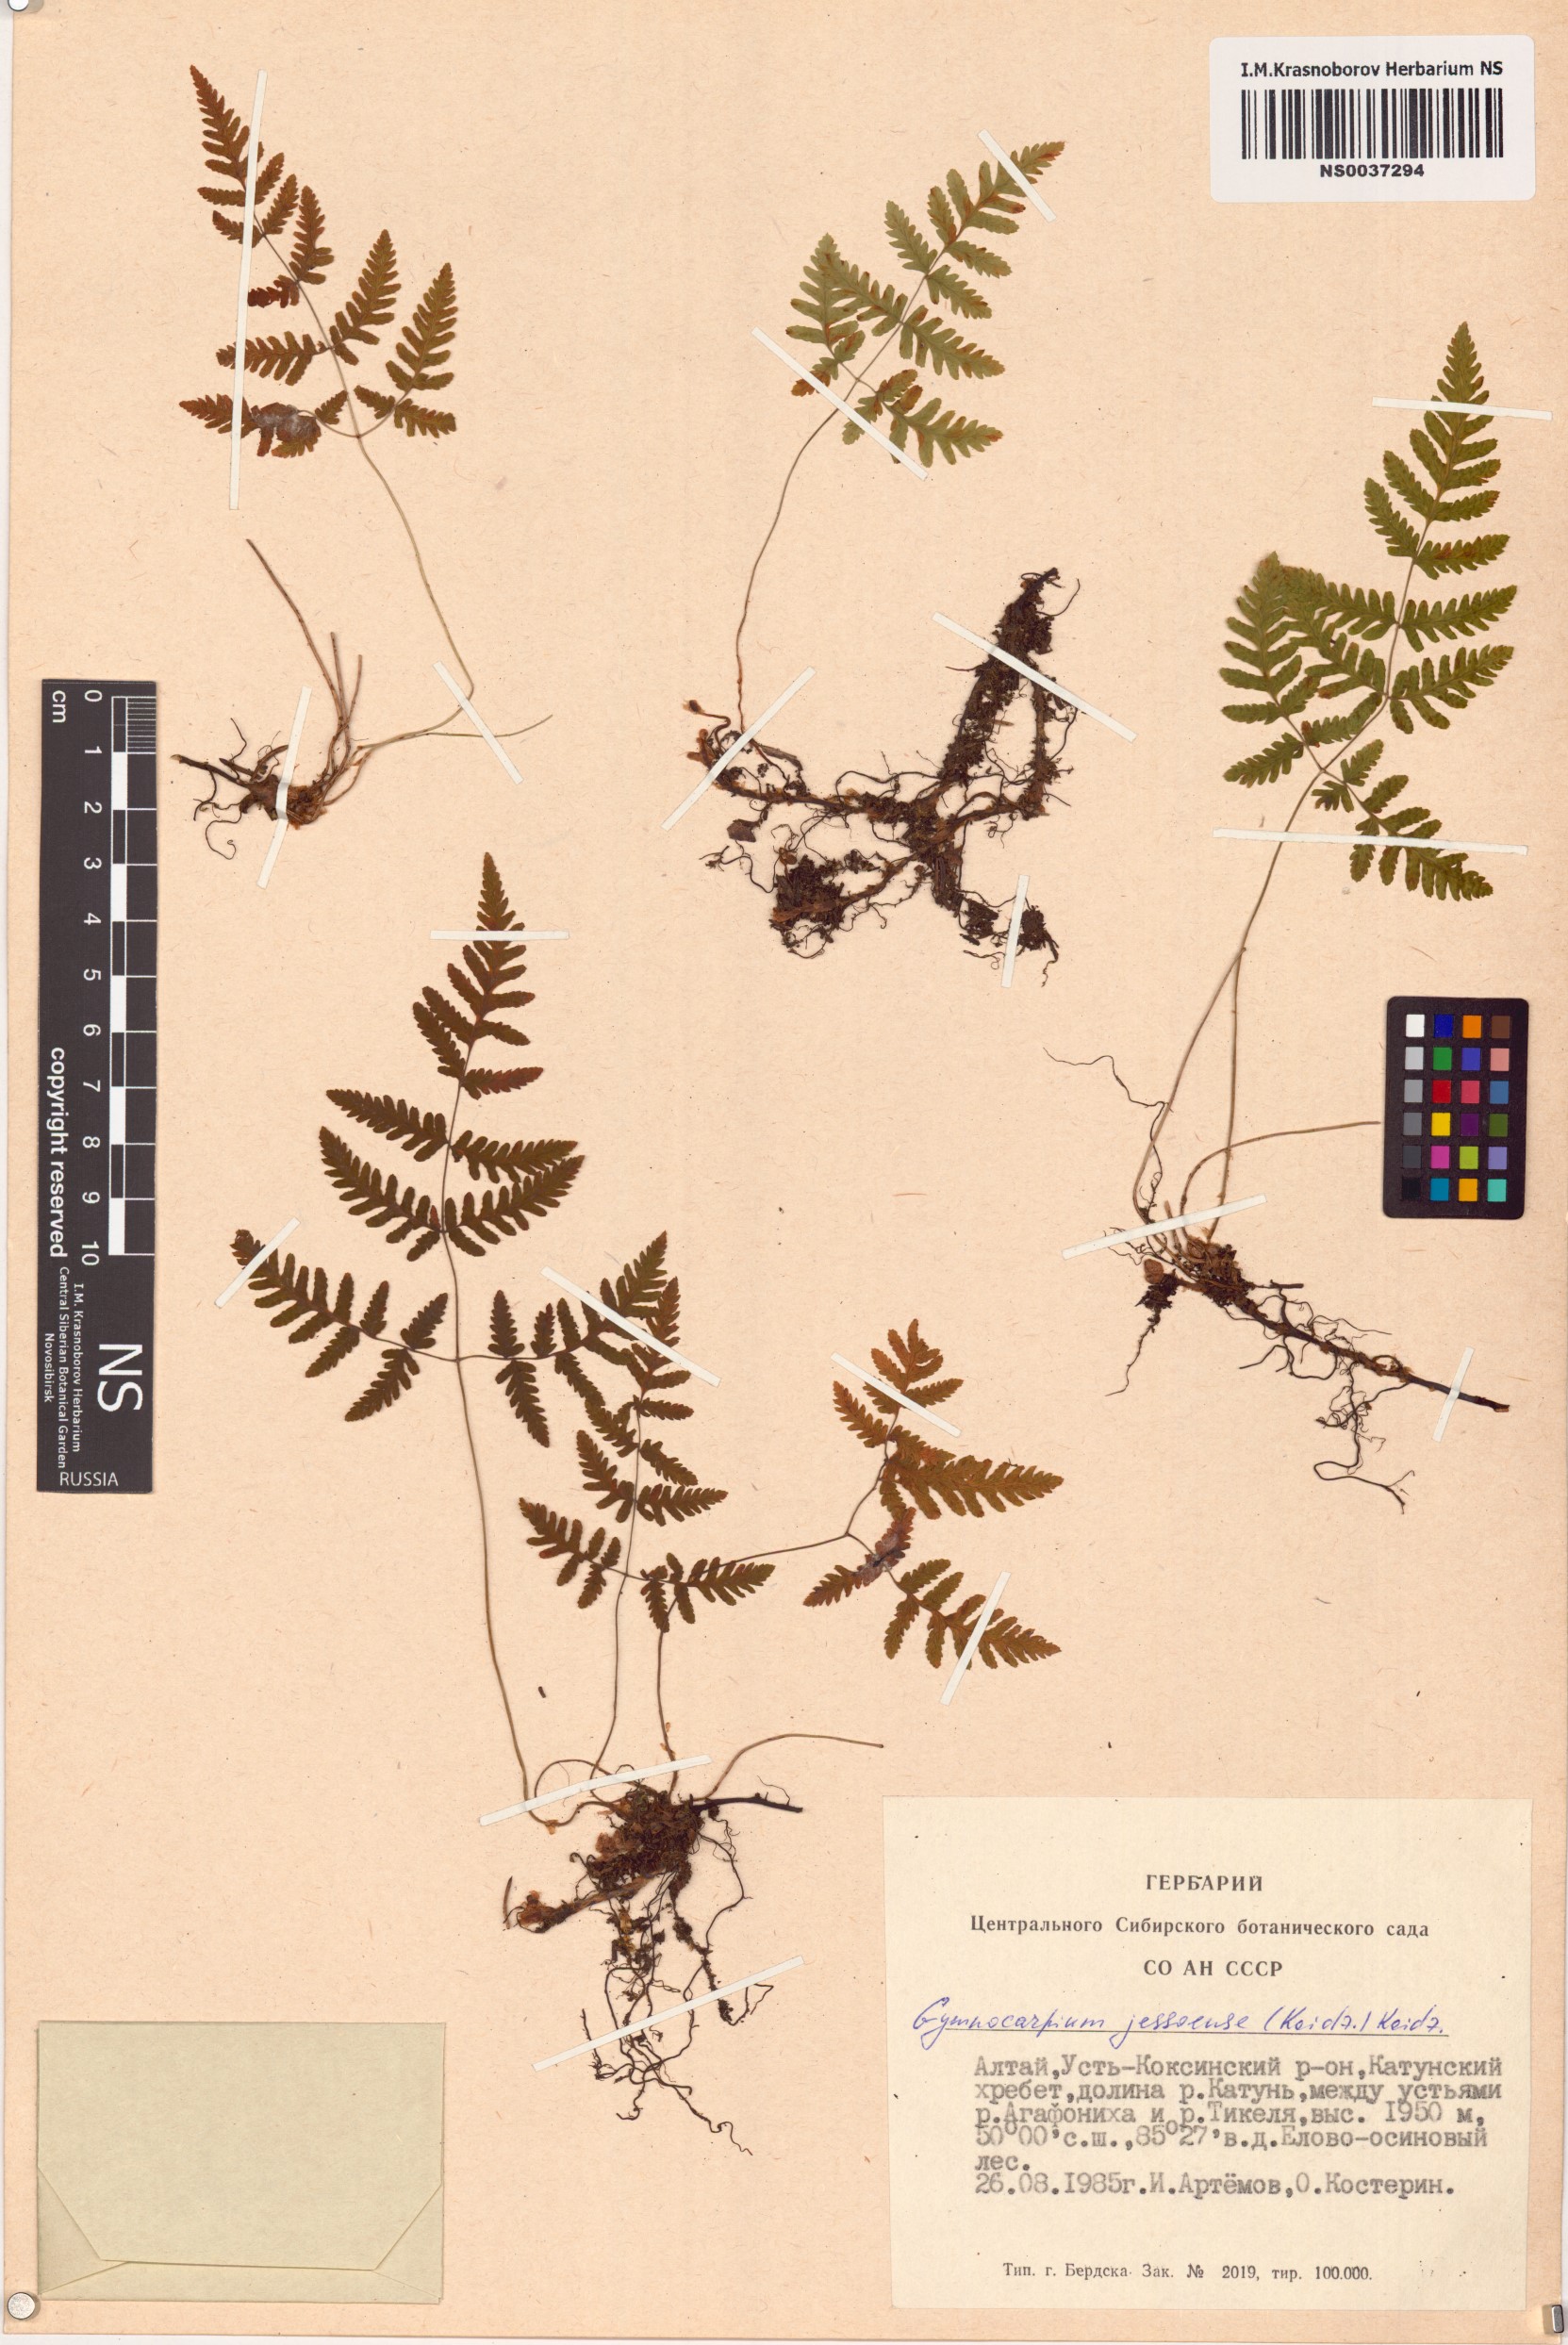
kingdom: Plantae
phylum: Tracheophyta
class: Polypodiopsida
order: Polypodiales
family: Cystopteridaceae
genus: Gymnocarpium
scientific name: Gymnocarpium jessoense
